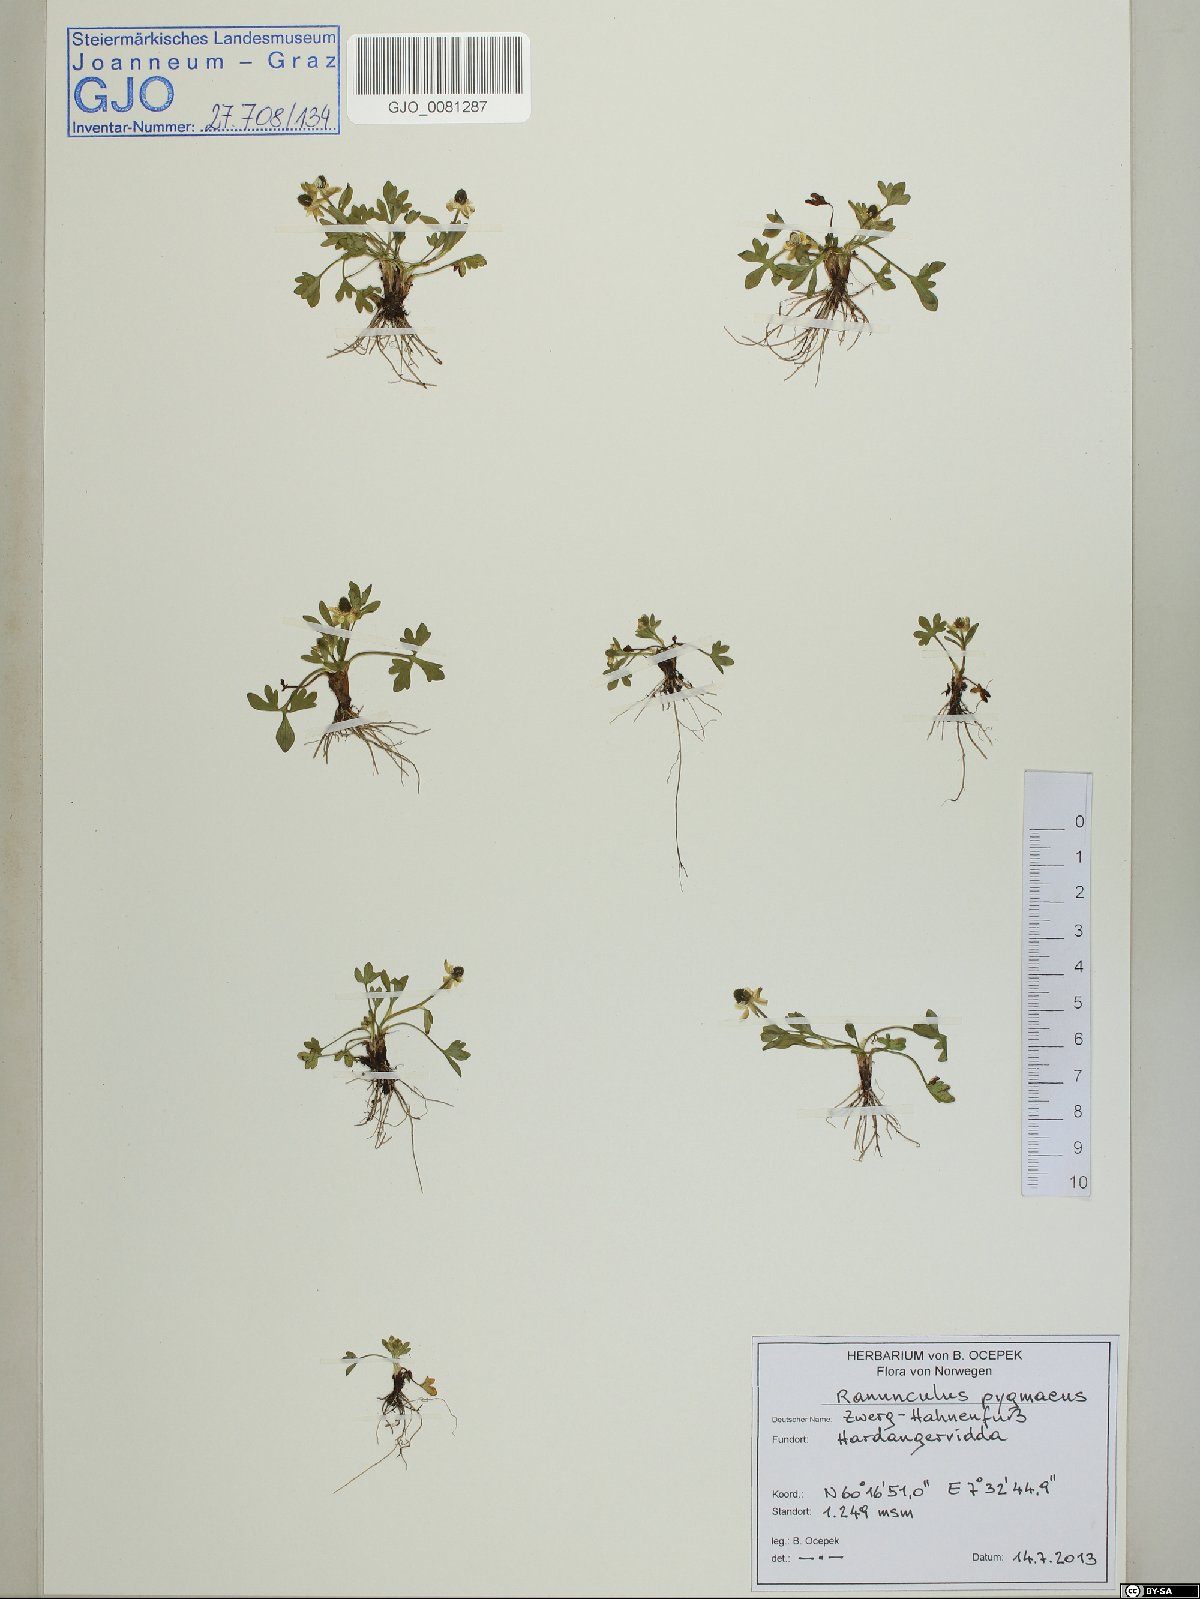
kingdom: Plantae
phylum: Tracheophyta
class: Magnoliopsida
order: Ranunculales
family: Ranunculaceae
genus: Ranunculus
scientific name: Ranunculus pygmaeus
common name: Dwarf buttercup
